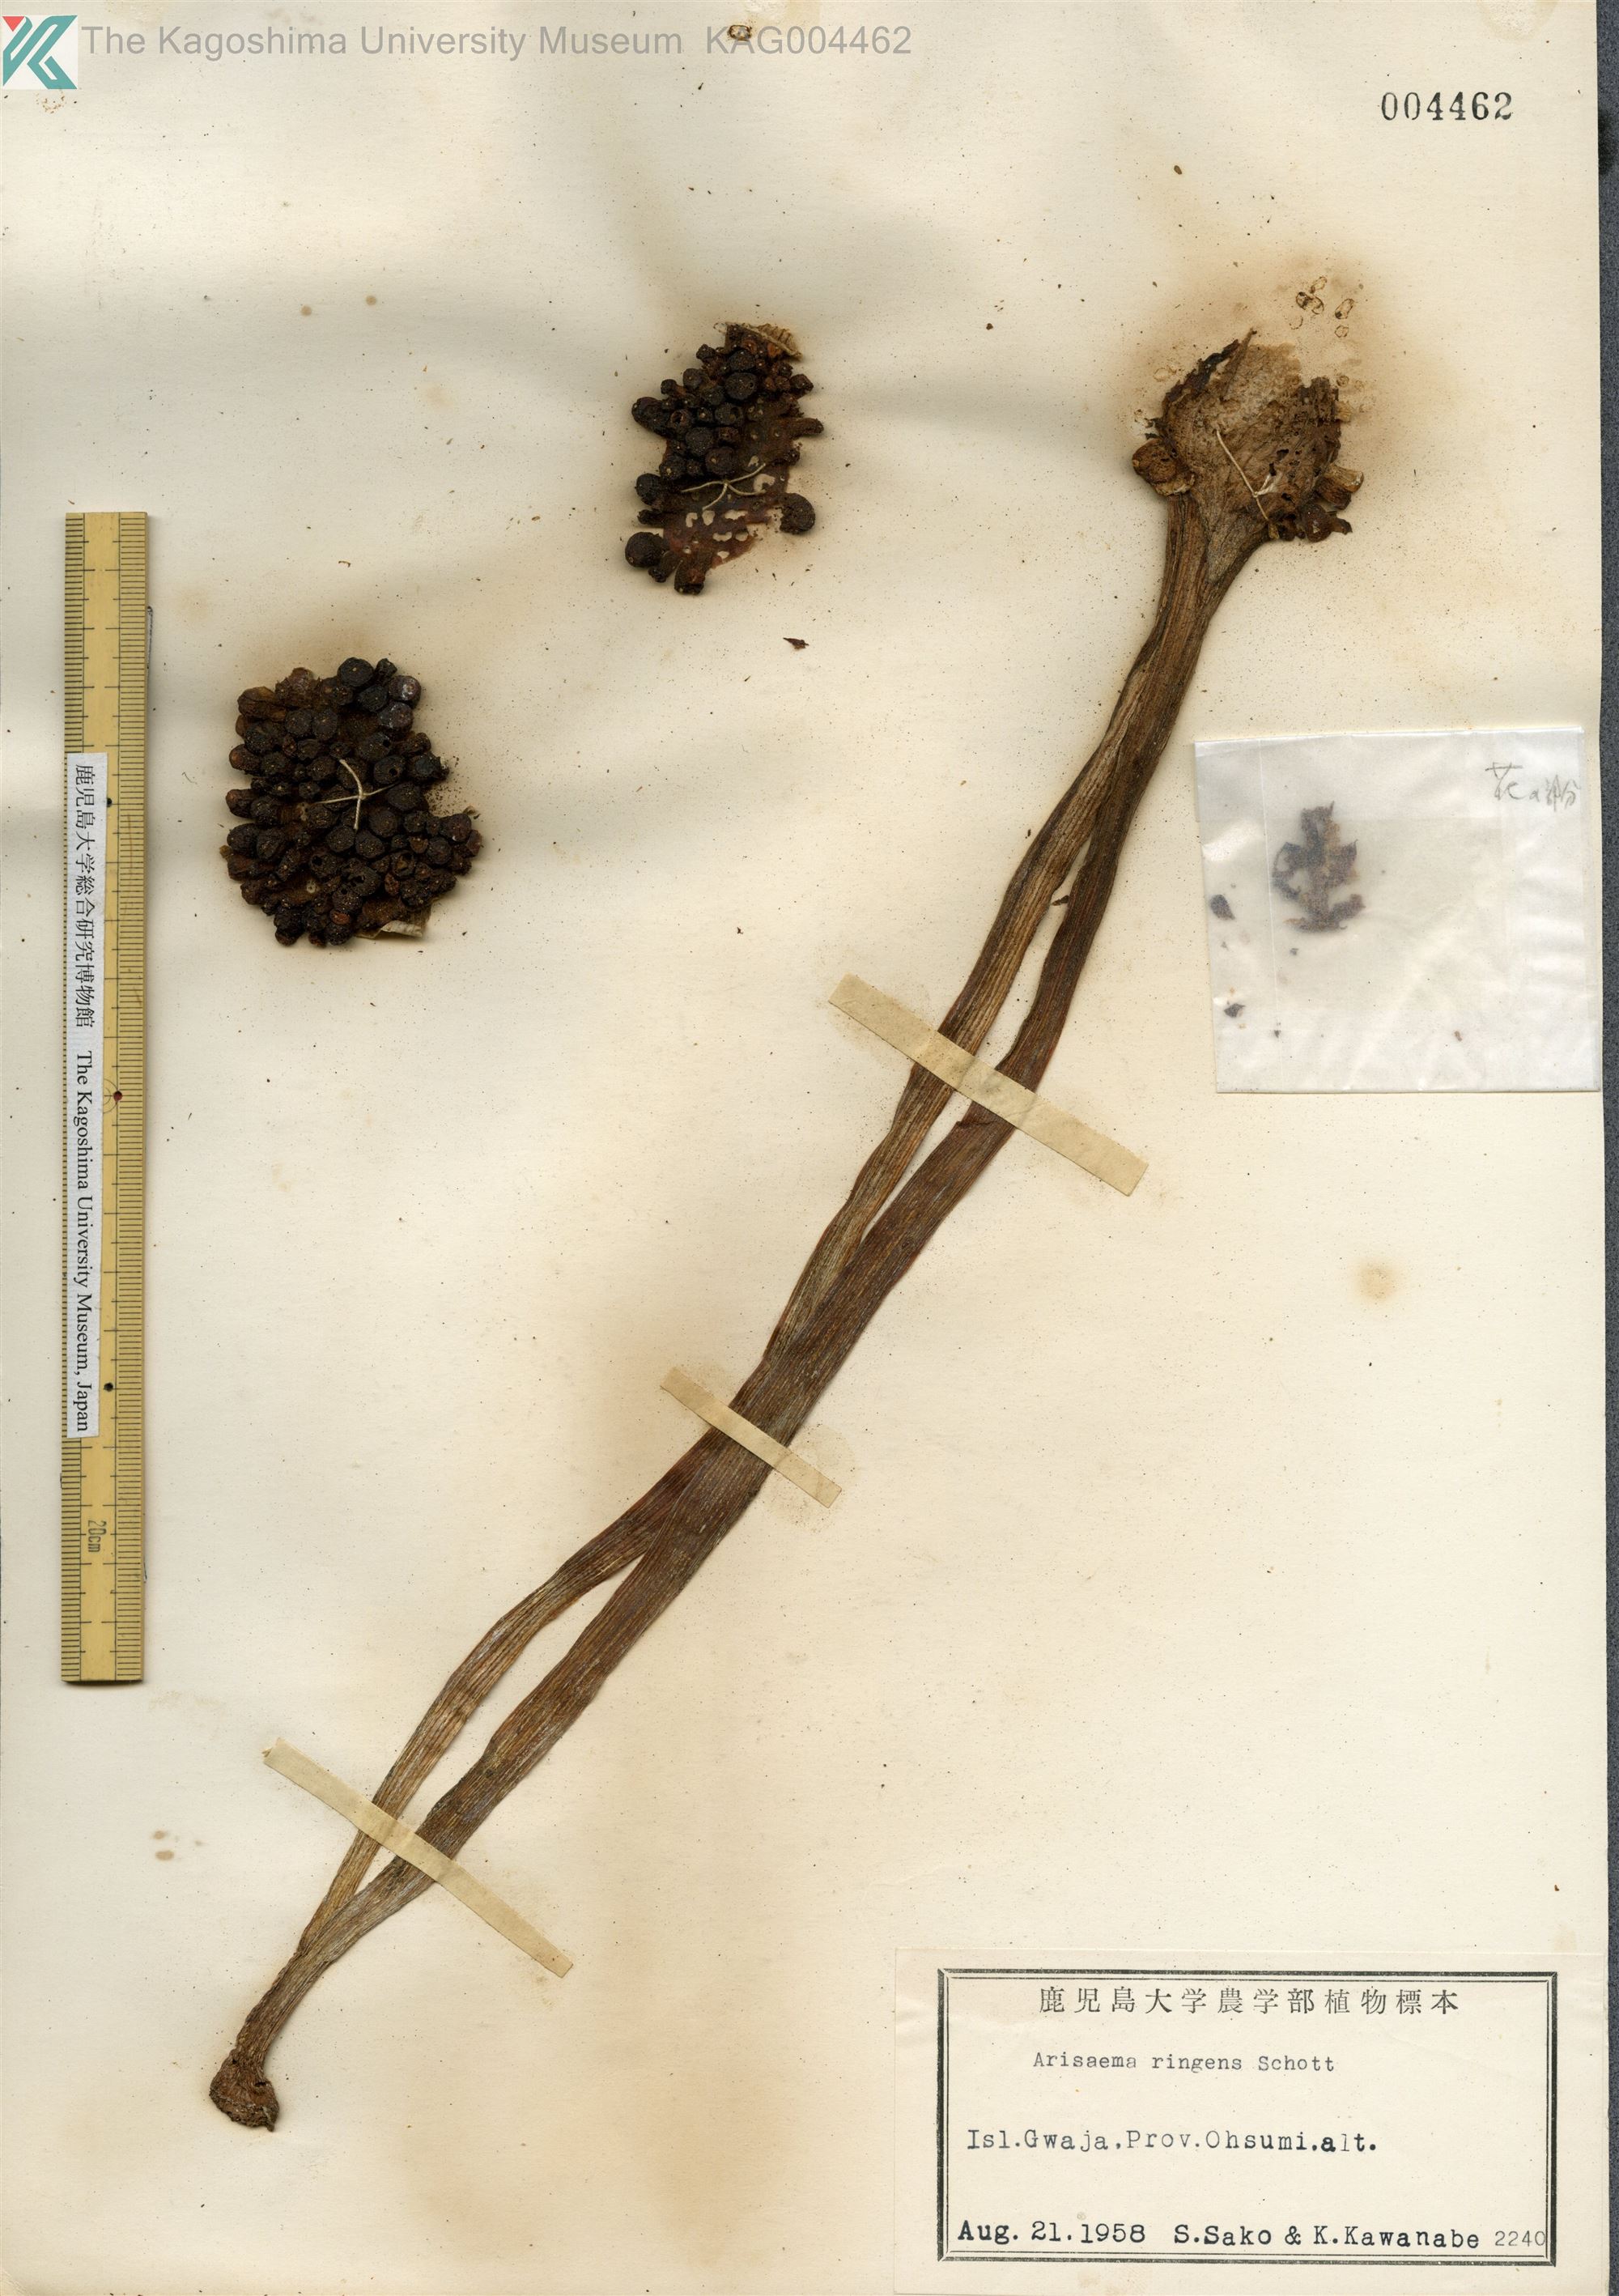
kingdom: Plantae
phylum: Tracheophyta
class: Liliopsida
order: Alismatales
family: Araceae
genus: Arisaema
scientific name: Arisaema ringens
